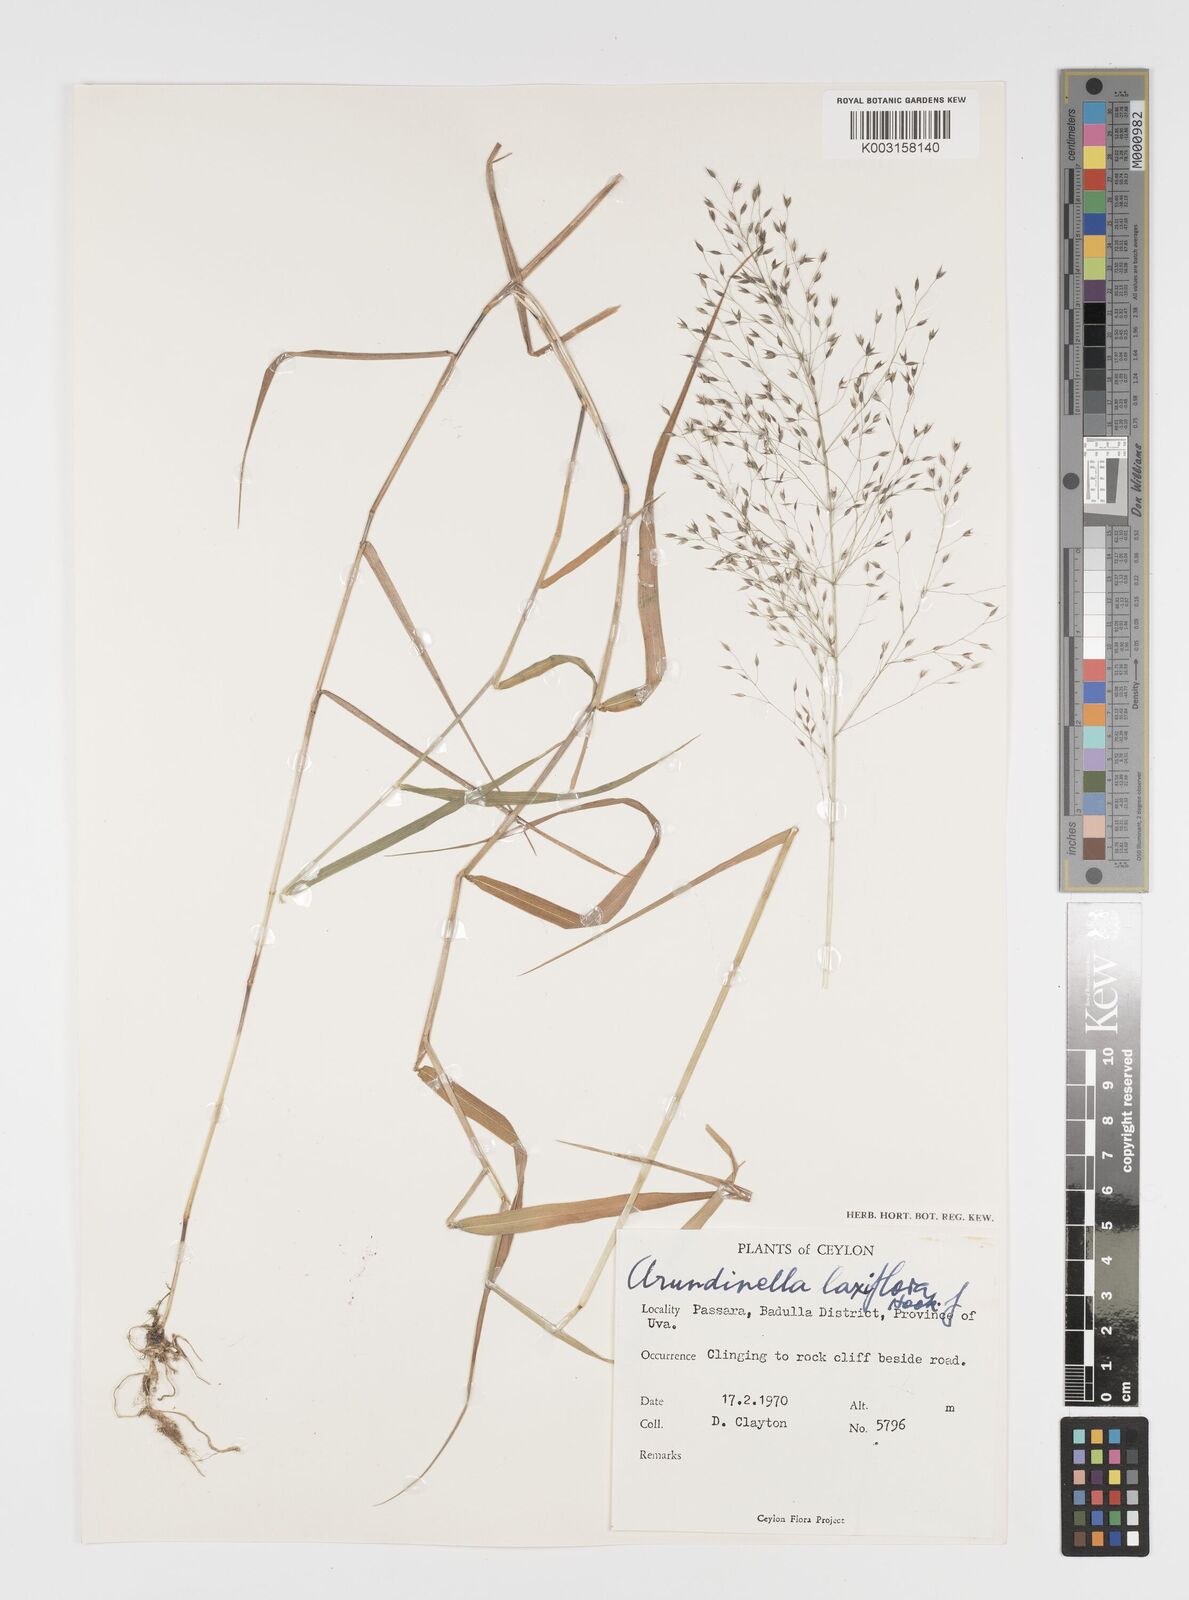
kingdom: Plantae
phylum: Tracheophyta
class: Liliopsida
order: Poales
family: Poaceae
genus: Arundinella
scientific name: Arundinella laxiflora
